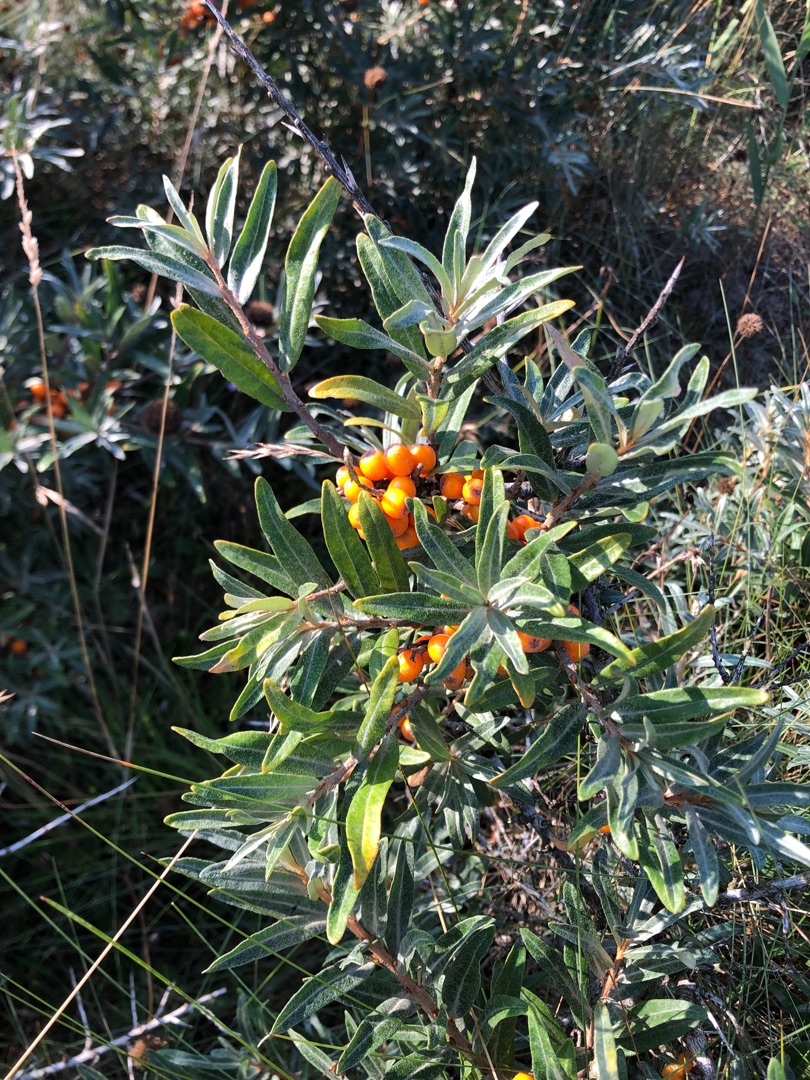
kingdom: Plantae
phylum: Tracheophyta
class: Magnoliopsida
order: Rosales
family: Elaeagnaceae
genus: Hippophae
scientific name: Hippophae rhamnoides
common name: Havtorn
